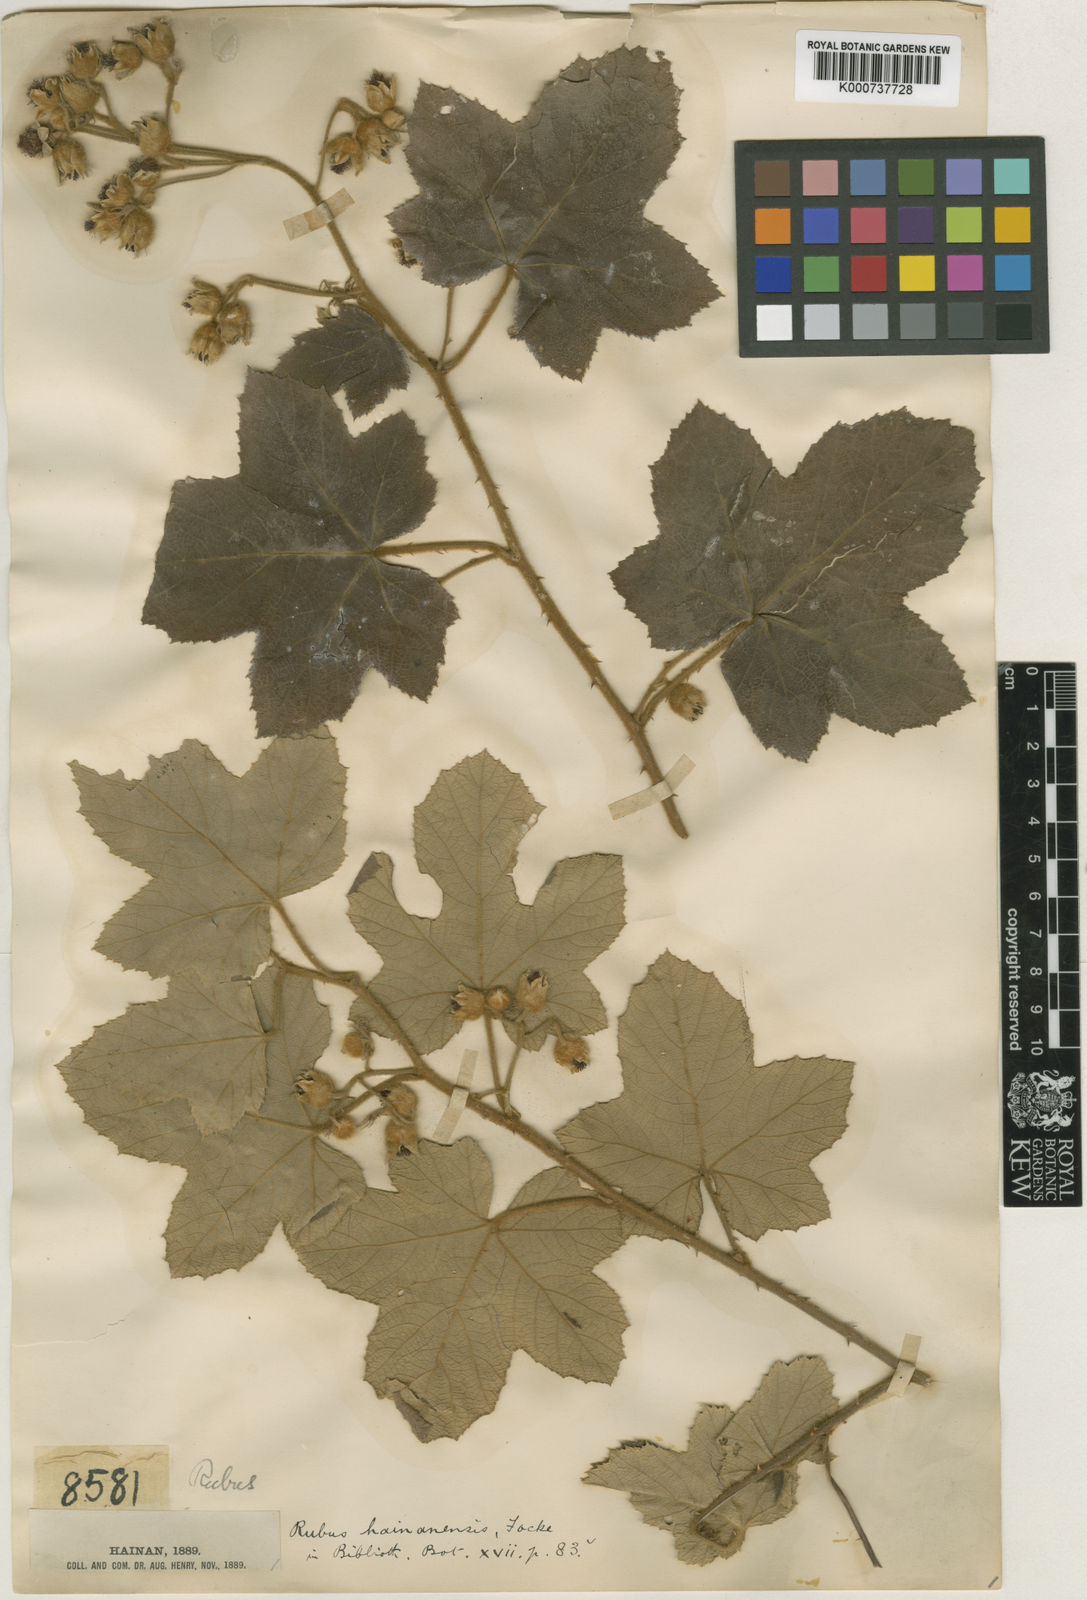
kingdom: Plantae
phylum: Tracheophyta
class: Magnoliopsida
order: Rosales
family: Rosaceae
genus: Rubus
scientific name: Rubus alceifolius
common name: Giant bramble
